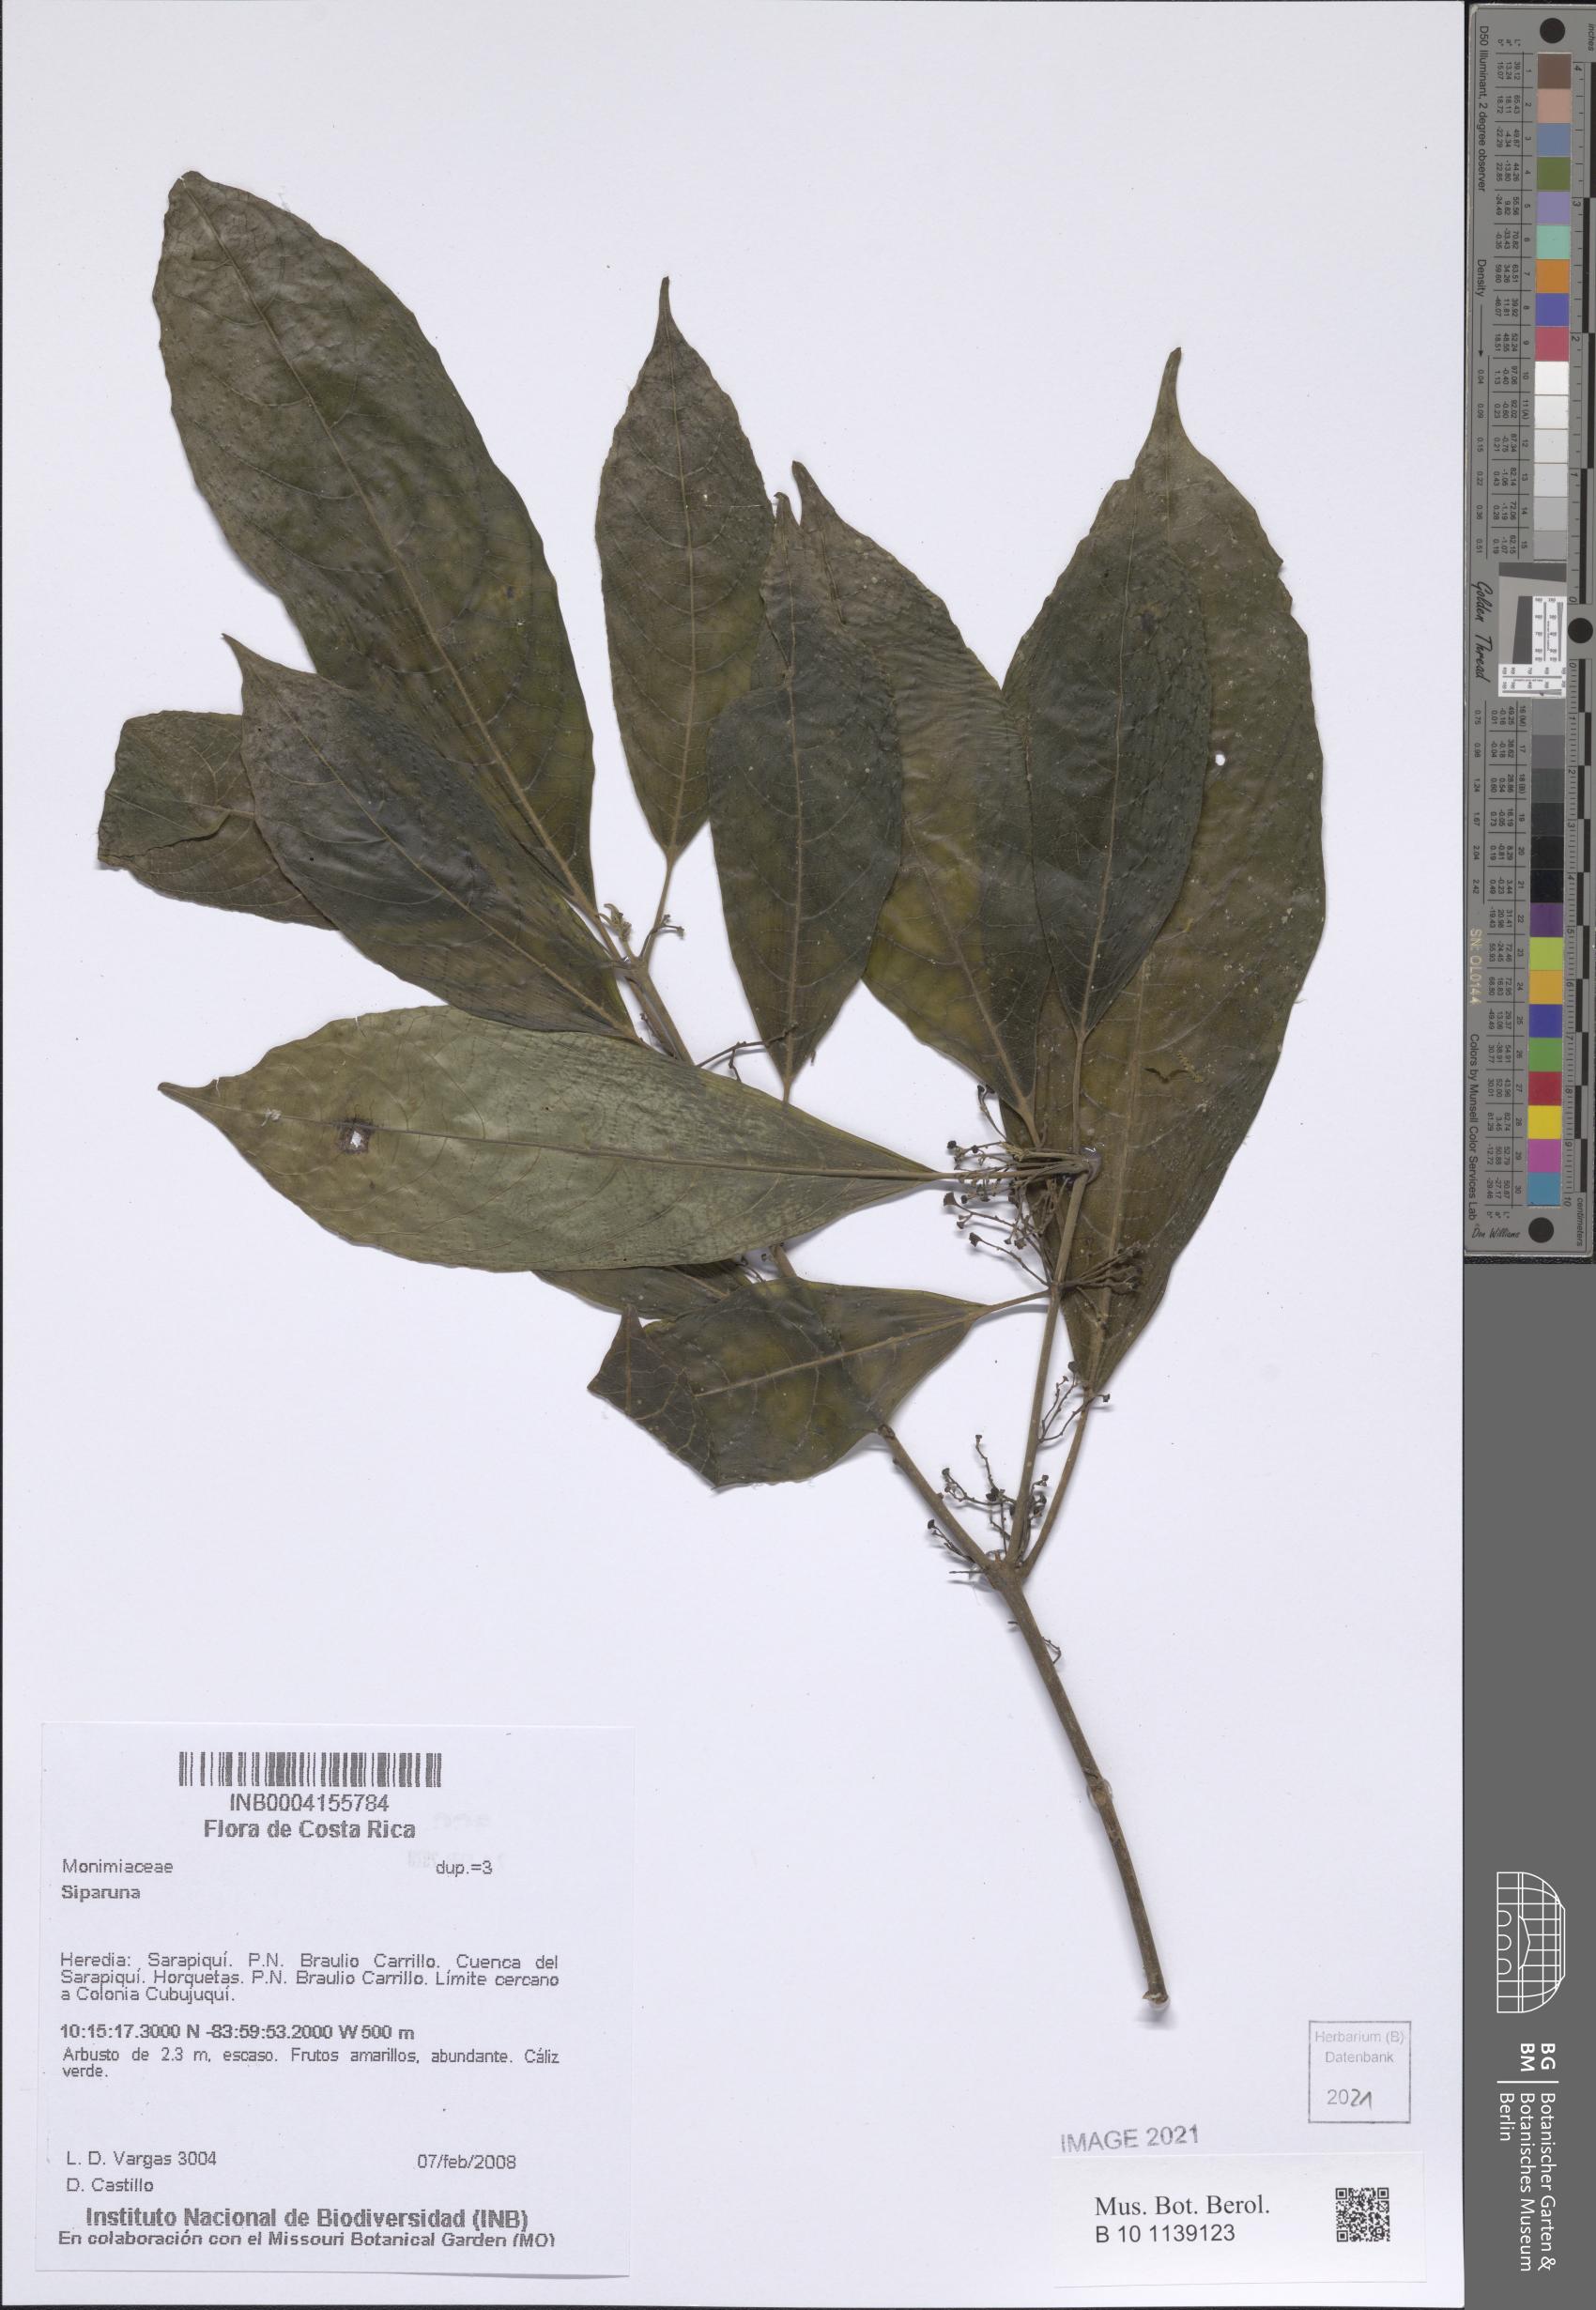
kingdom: Plantae
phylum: Tracheophyta
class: Magnoliopsida
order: Laurales
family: Siparunaceae
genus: Siparuna
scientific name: Siparuna
